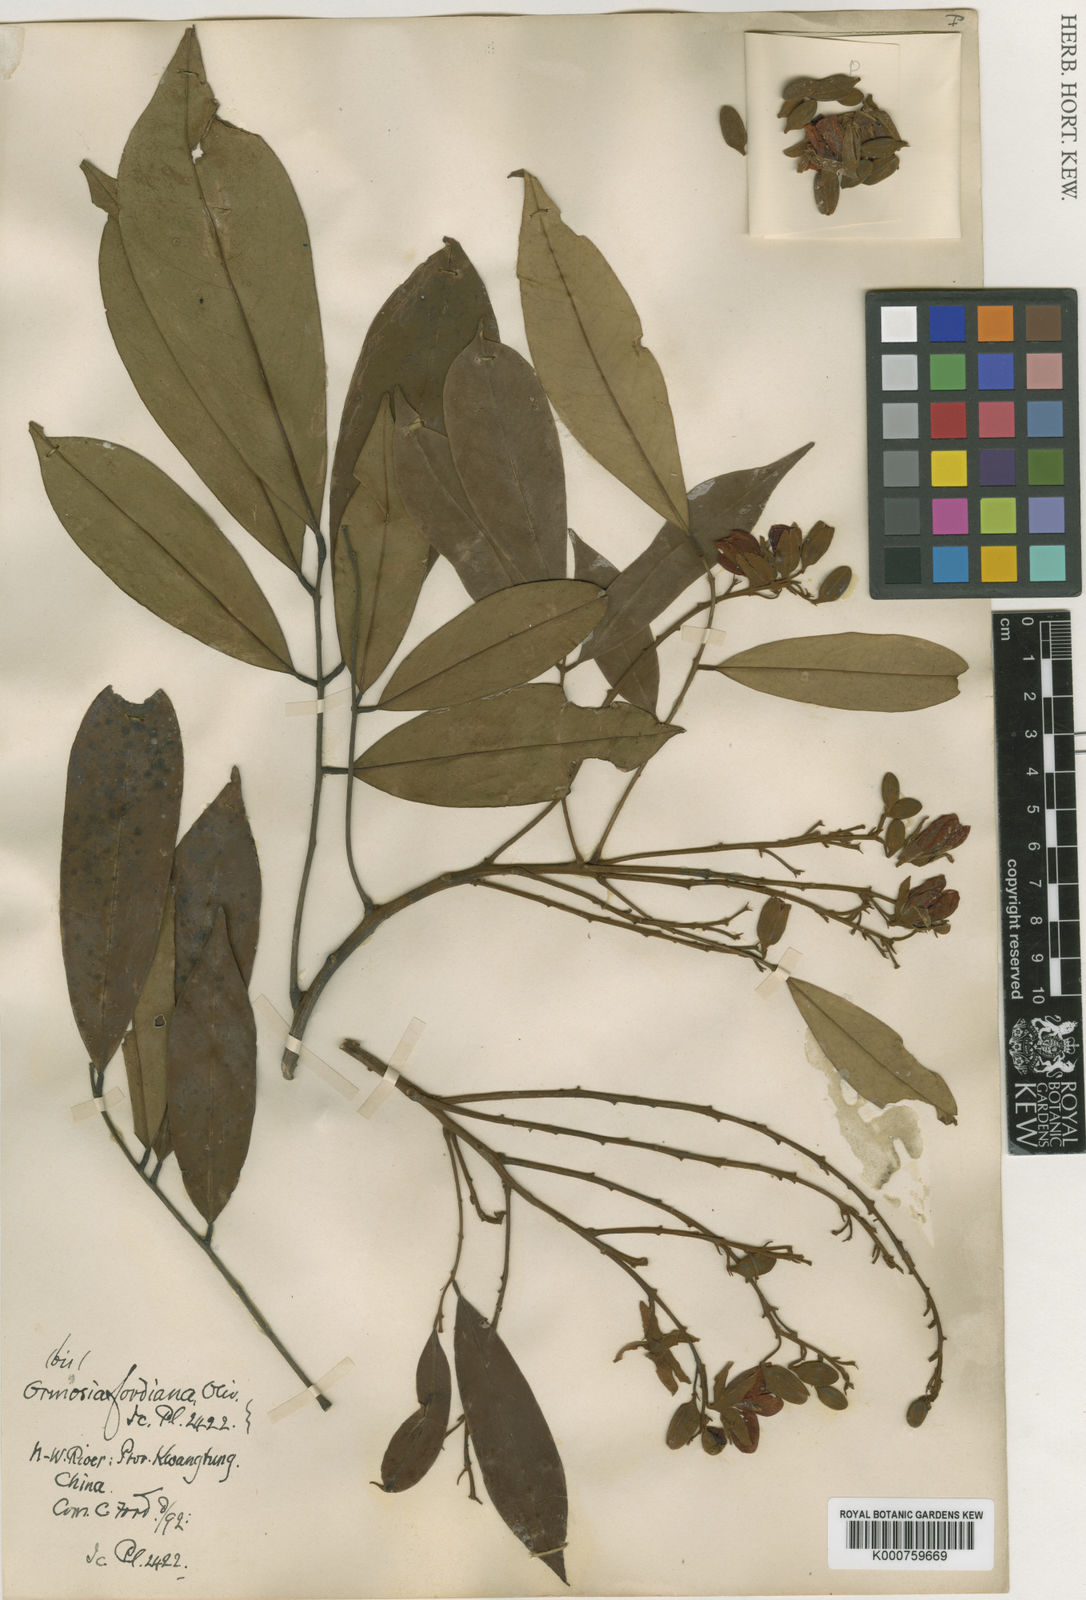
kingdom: Plantae
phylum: Tracheophyta
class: Magnoliopsida
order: Fabales
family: Fabaceae
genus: Ormosia
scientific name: Ormosia fordiana
